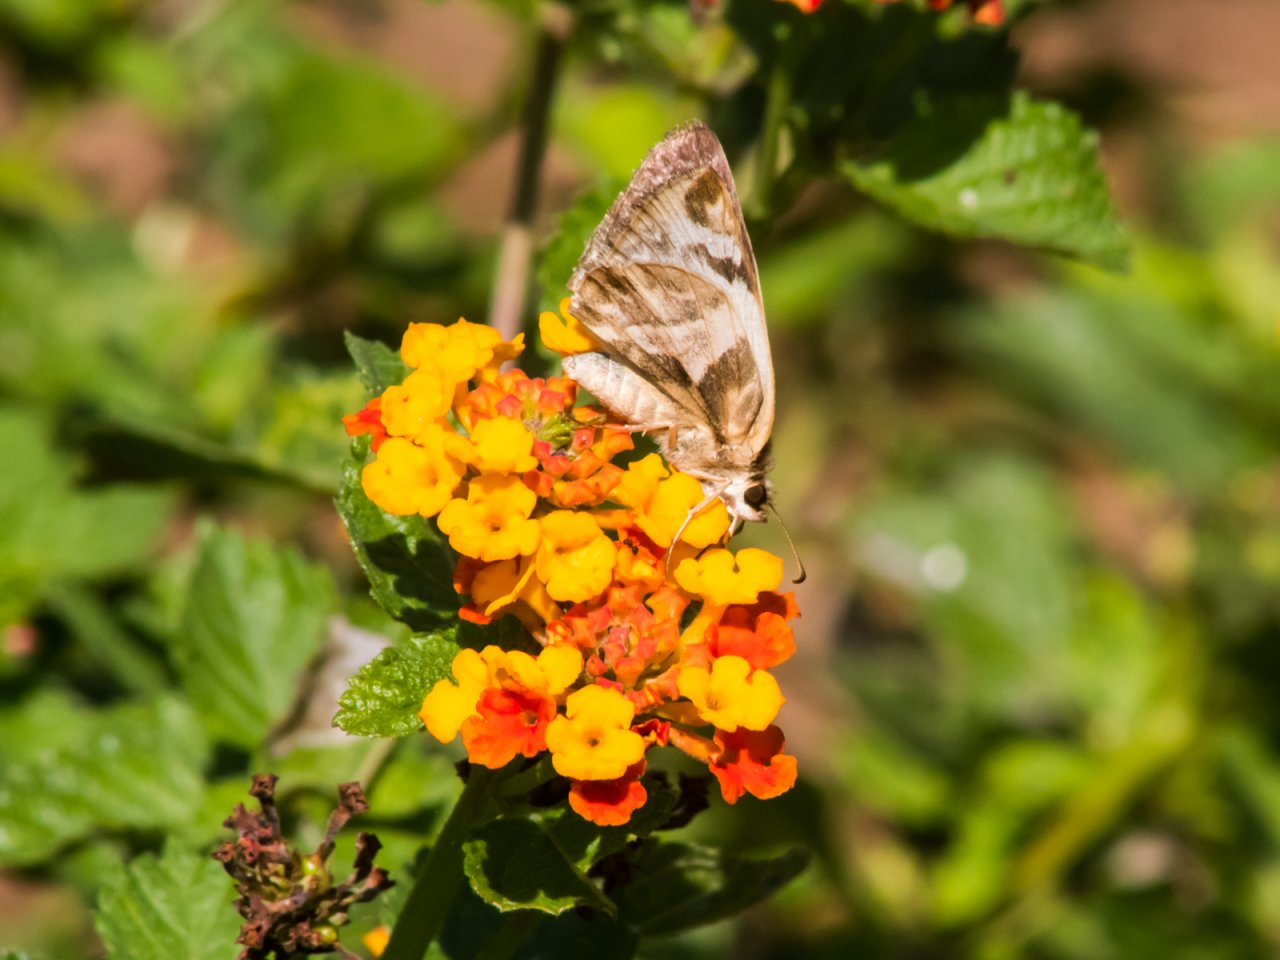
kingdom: Animalia
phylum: Arthropoda
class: Insecta
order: Lepidoptera
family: Hesperiidae
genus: Heliopetes
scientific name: Heliopetes laviana
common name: Laviana White-Skipper
